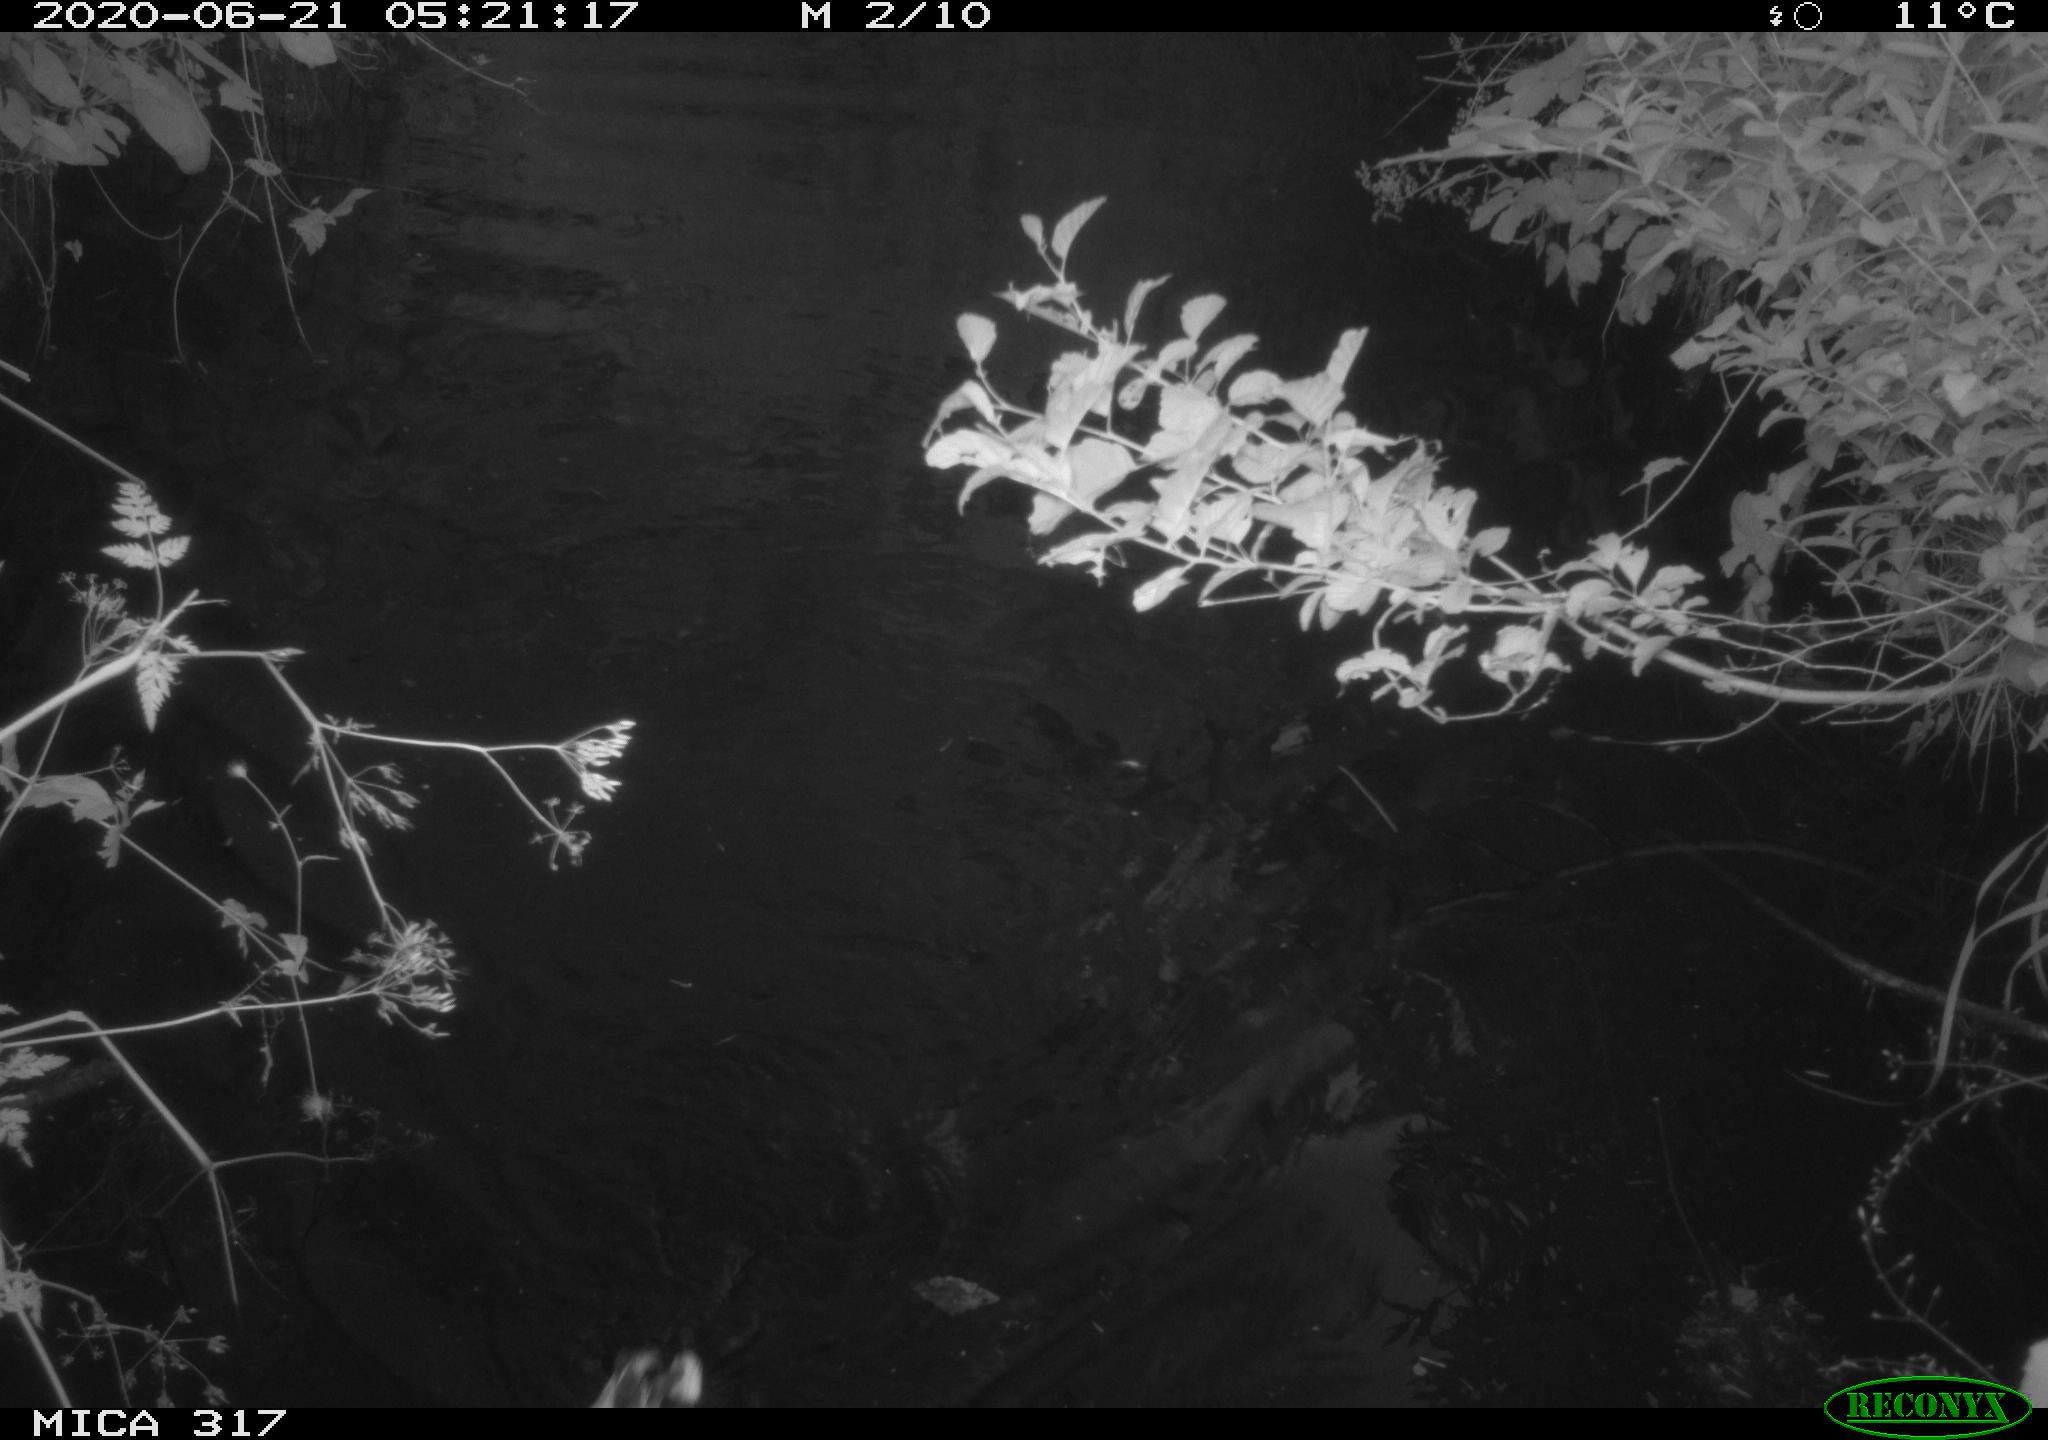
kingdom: Animalia
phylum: Chordata
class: Aves
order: Anseriformes
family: Anatidae
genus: Anas
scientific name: Anas platyrhynchos
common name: Mallard
